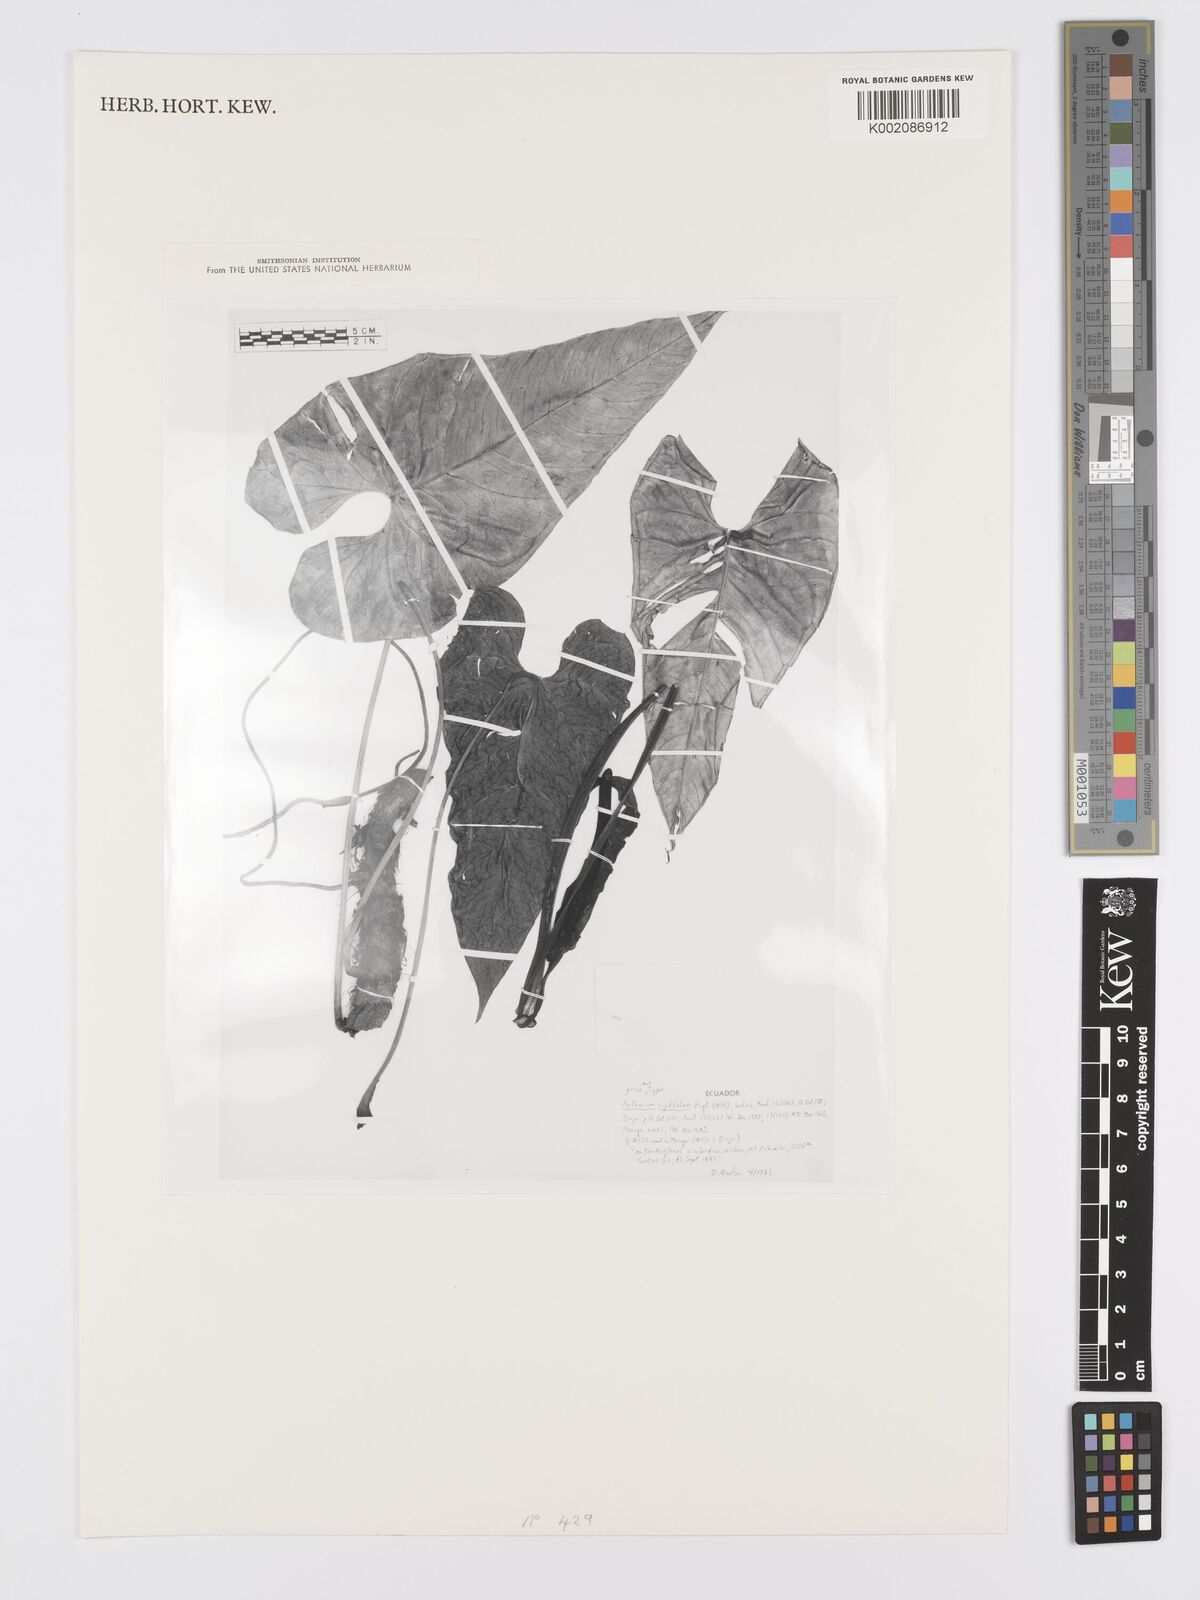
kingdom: Plantae
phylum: Tracheophyta
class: Liliopsida
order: Alismatales
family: Araceae
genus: Anthurium
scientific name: Anthurium rigidifolium
